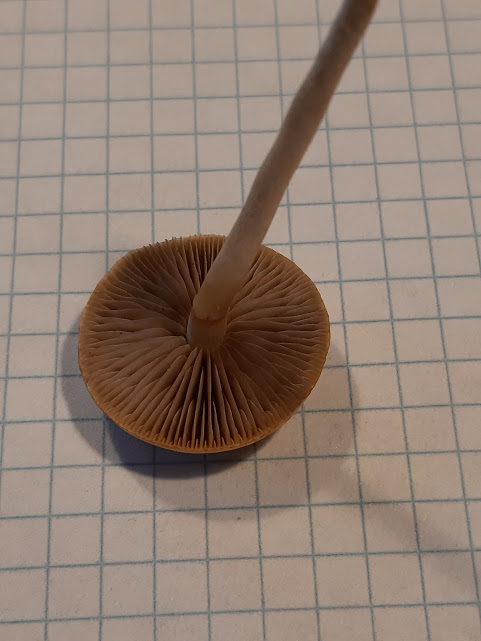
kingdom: Fungi
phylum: Basidiomycota
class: Agaricomycetes
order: Agaricales
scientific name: Agaricales
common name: champignonordenen
